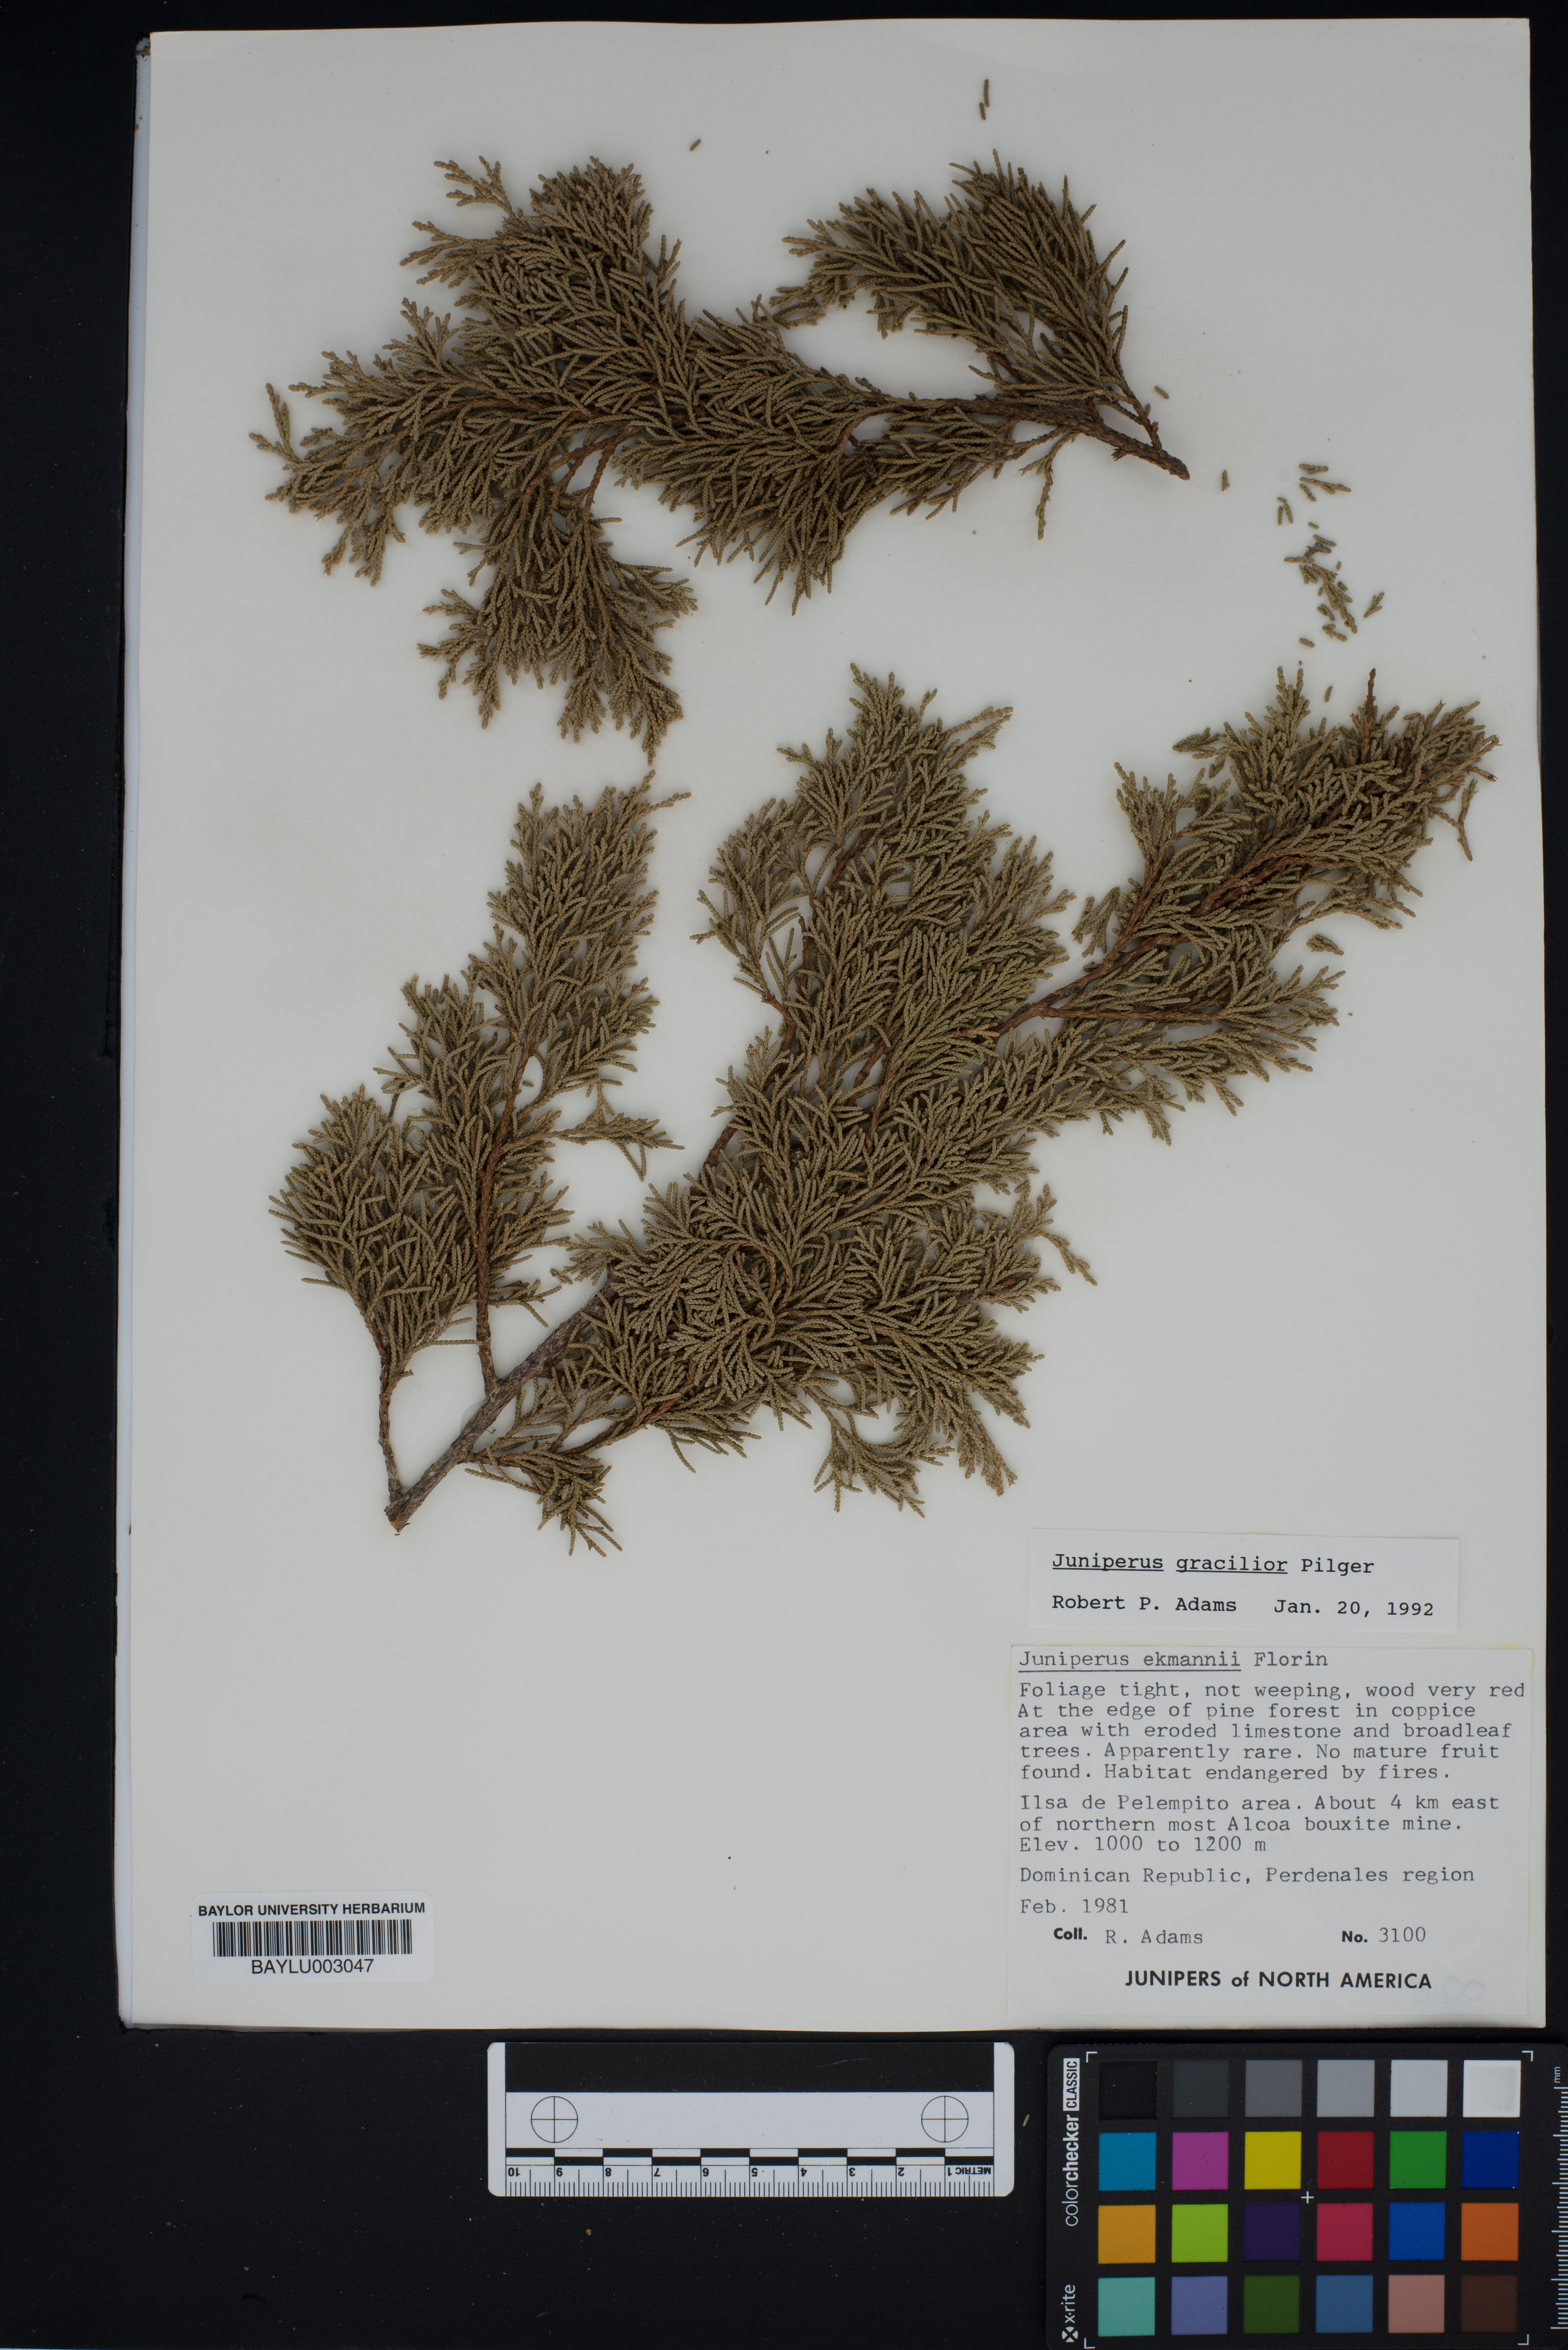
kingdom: Plantae
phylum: Tracheophyta
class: Pinopsida
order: Pinales
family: Cupressaceae
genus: Juniperus
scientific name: Juniperus gracilior
